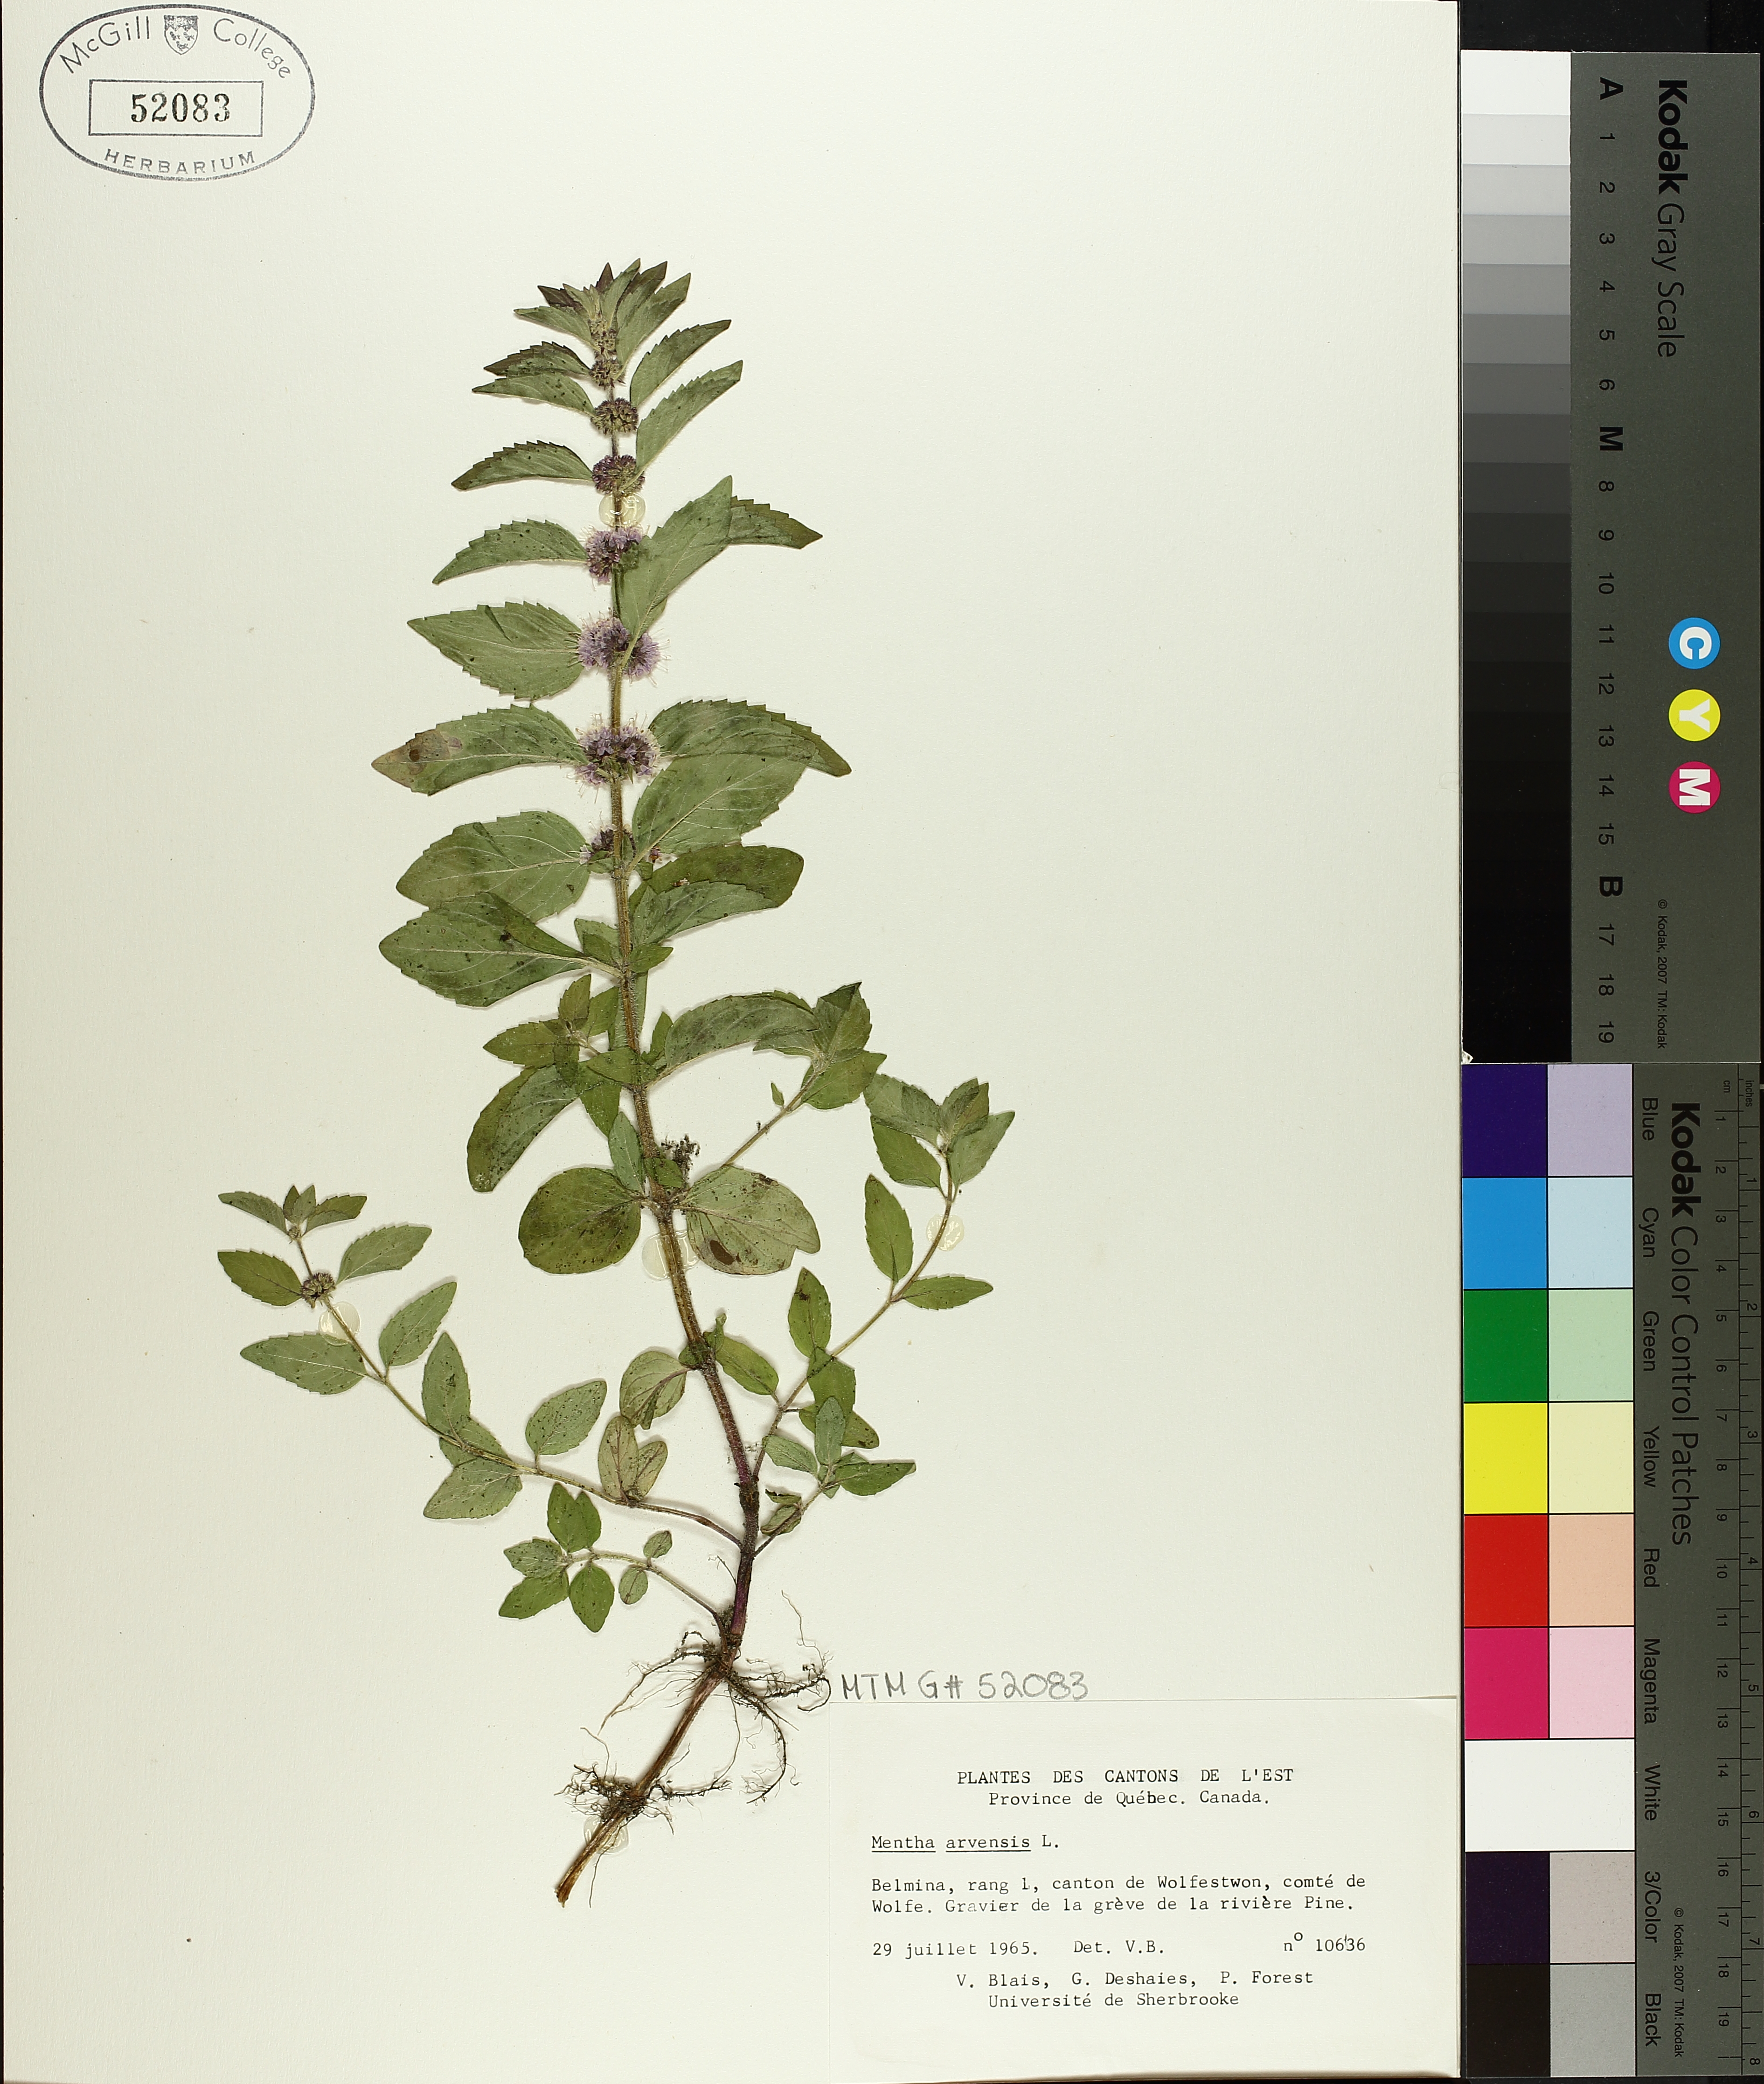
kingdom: Plantae
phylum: Tracheophyta
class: Magnoliopsida
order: Lamiales
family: Lamiaceae
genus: Mentha
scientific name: Mentha arvensis
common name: Corn mint
